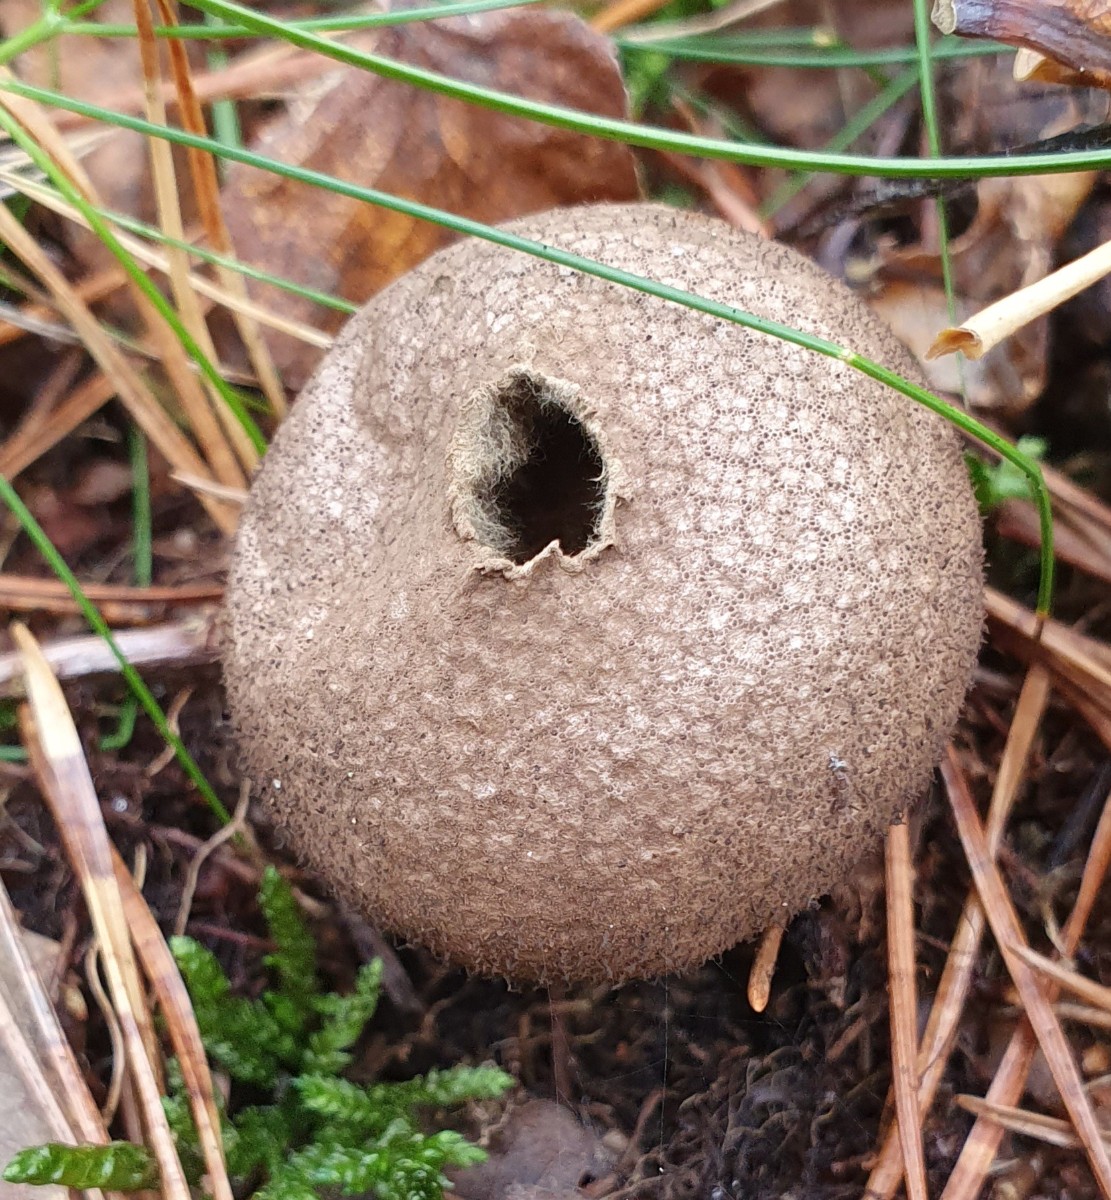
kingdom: Fungi
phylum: Basidiomycota
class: Agaricomycetes
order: Agaricales
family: Lycoperdaceae
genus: Lycoperdon
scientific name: Lycoperdon nigrescens
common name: sortagtig støvbold
